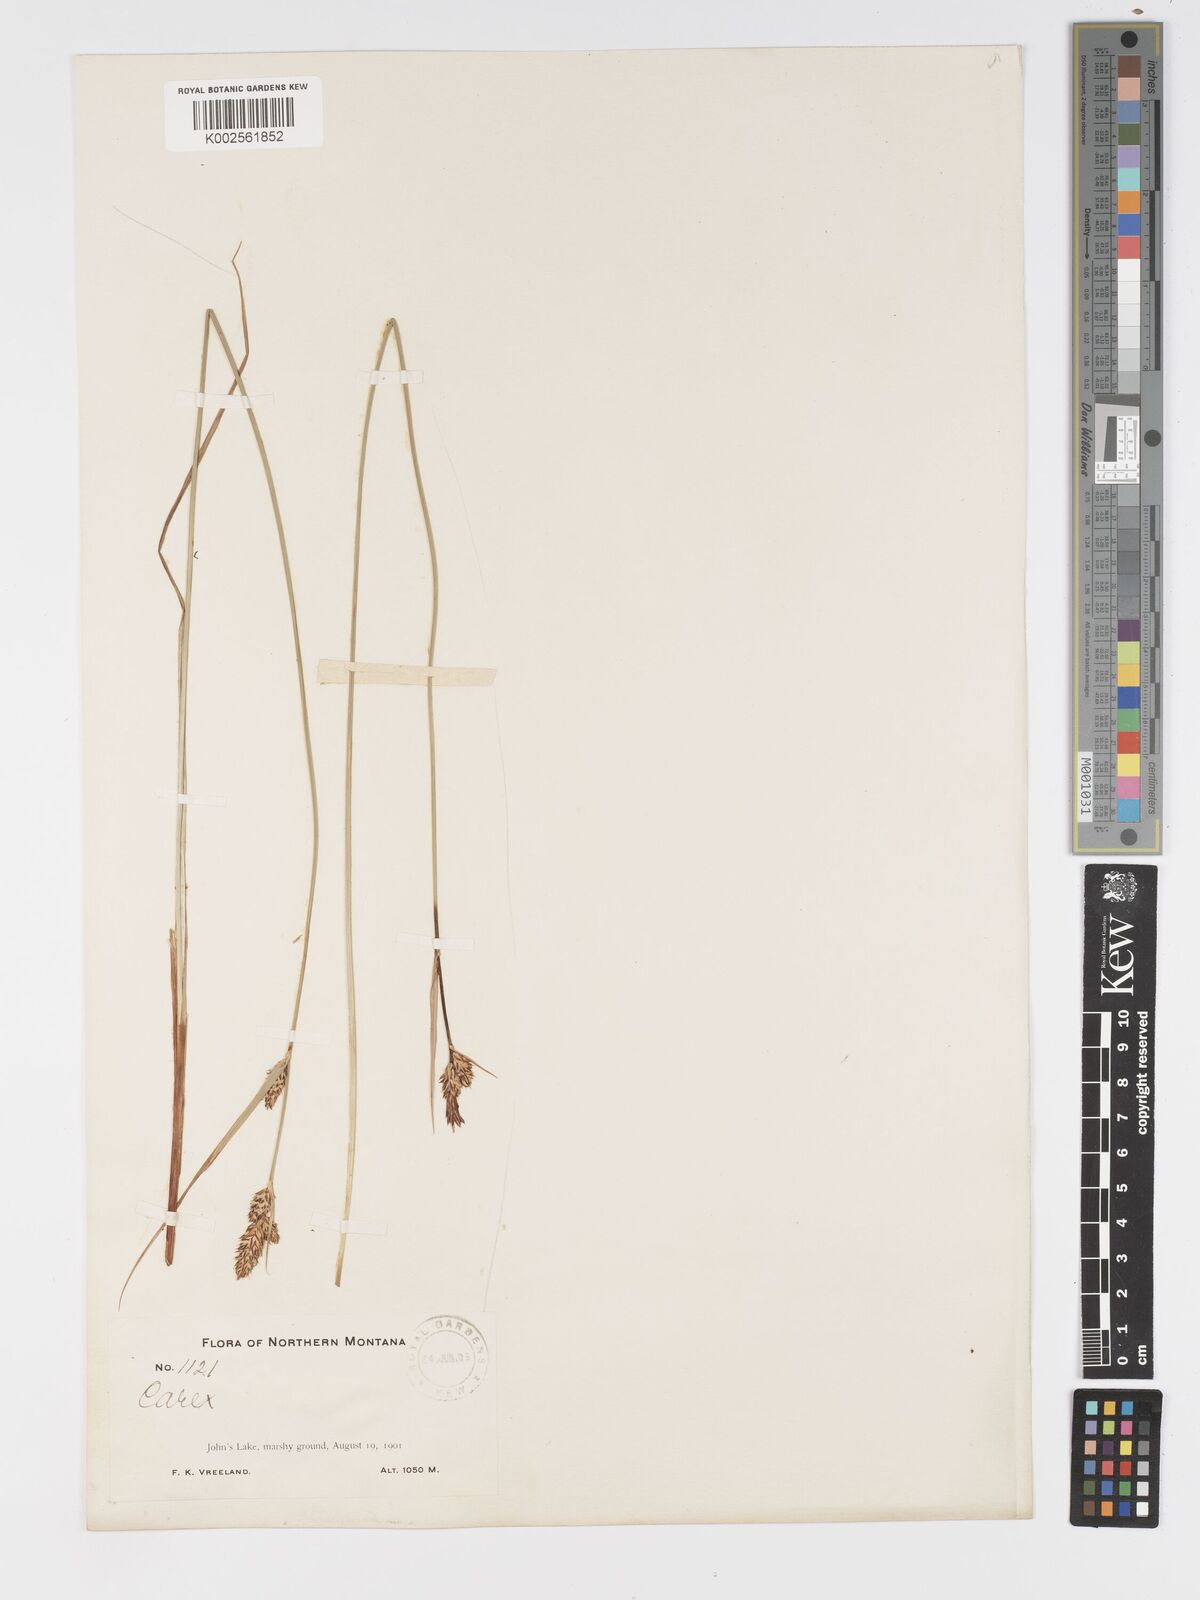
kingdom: Plantae
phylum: Tracheophyta
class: Liliopsida
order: Poales
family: Cyperaceae
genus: Carex
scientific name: Carex buxbaumii
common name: Club sedge
